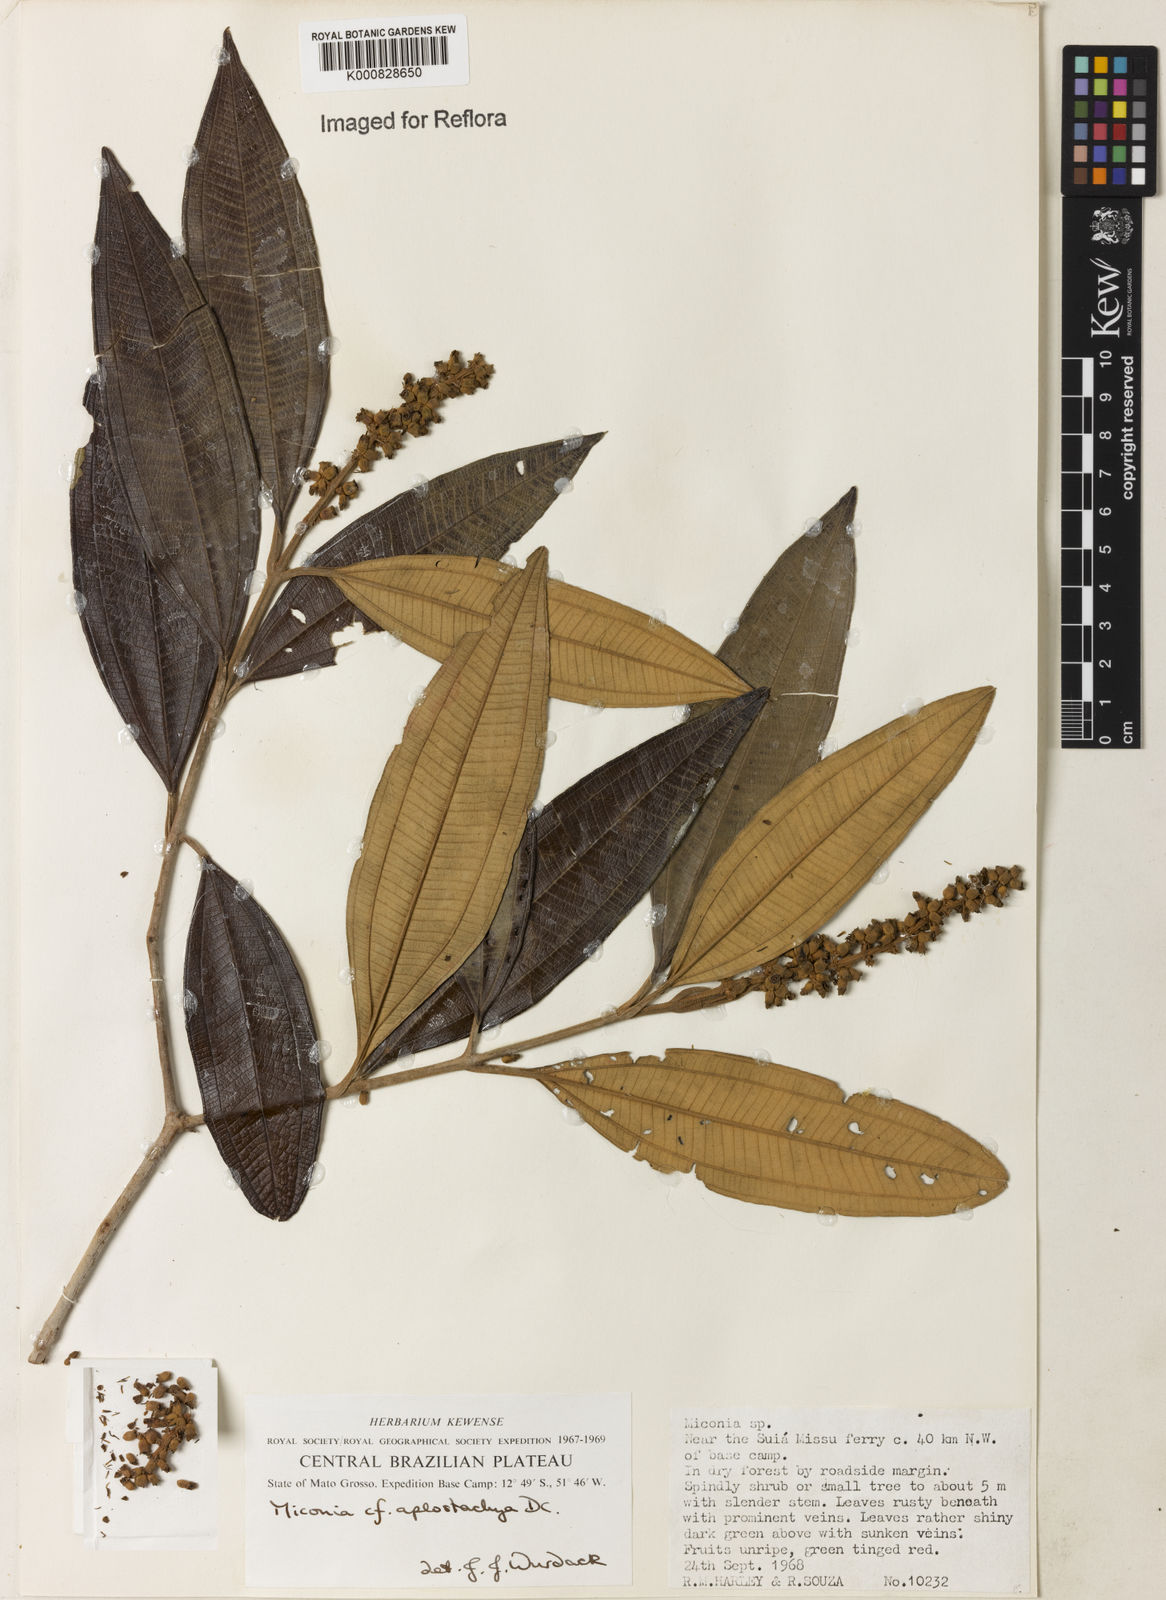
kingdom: Plantae
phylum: Tracheophyta
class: Magnoliopsida
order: Myrtales
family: Melastomataceae
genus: Miconia
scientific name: Miconia aplostachya
